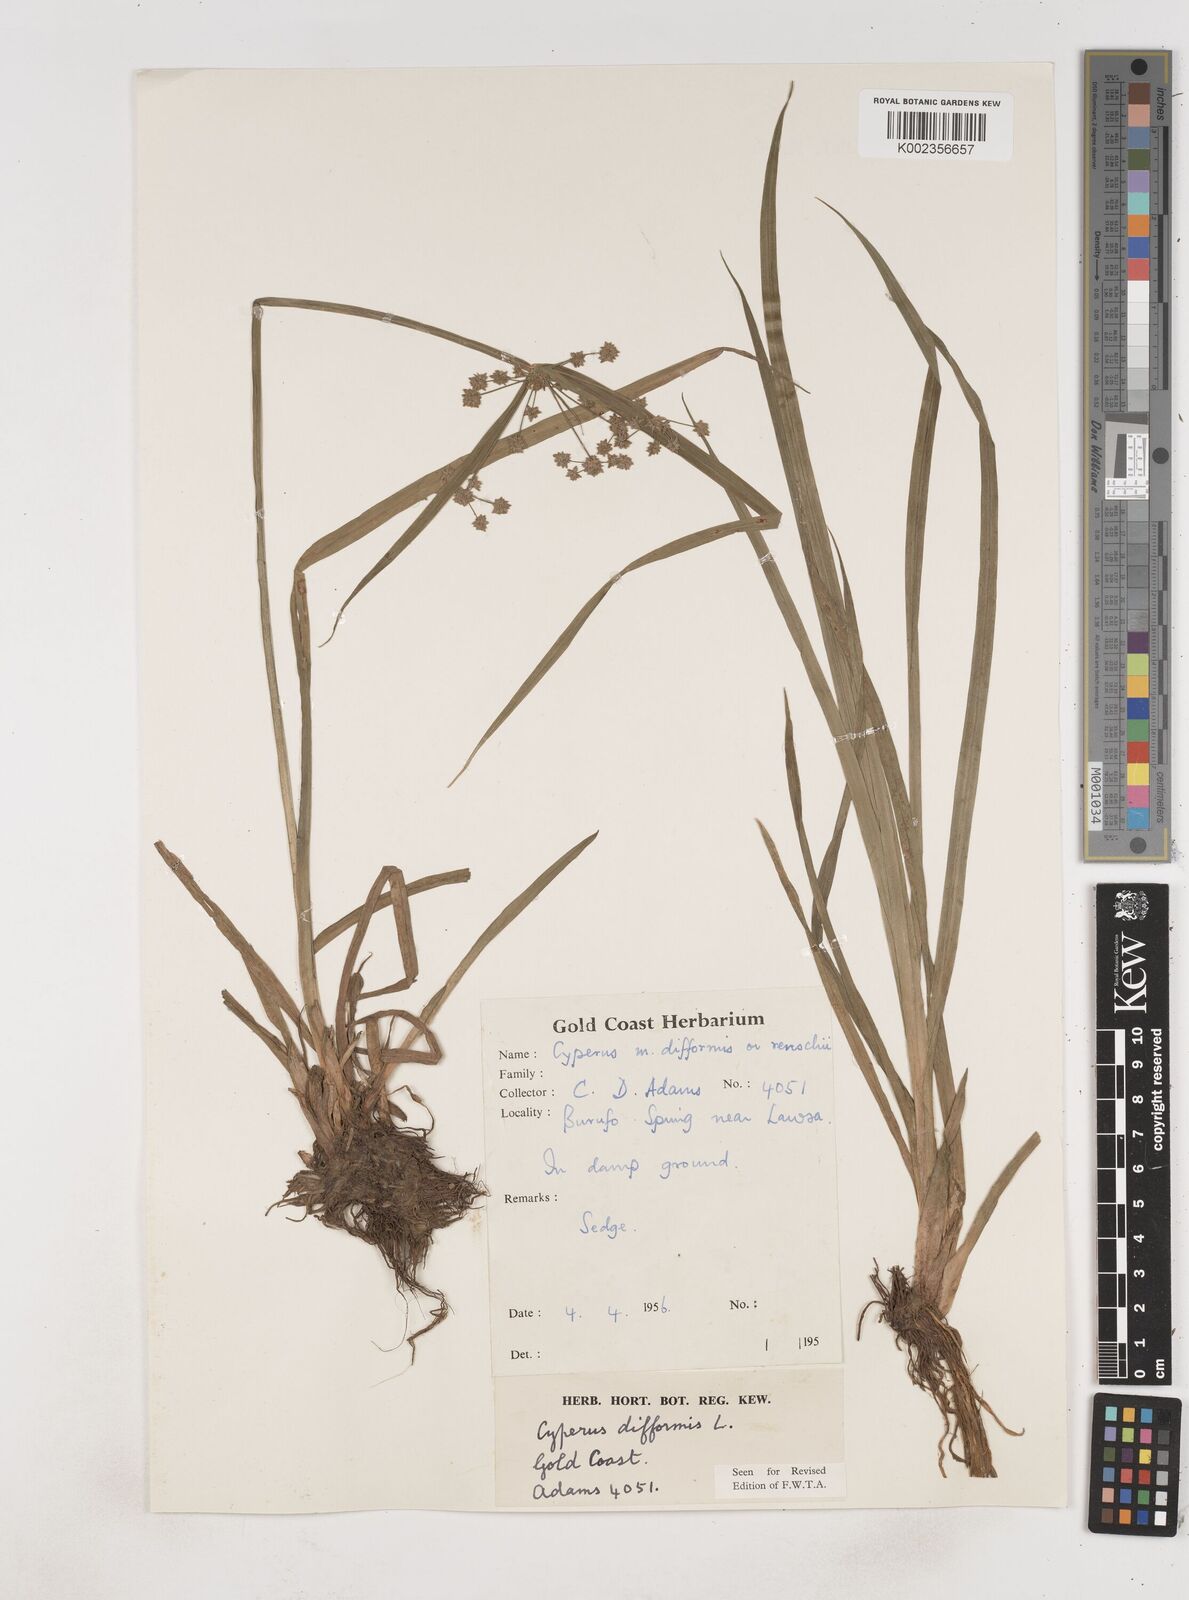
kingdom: Plantae
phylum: Tracheophyta
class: Liliopsida
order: Poales
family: Cyperaceae
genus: Cyperus
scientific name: Cyperus difformis
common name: Variable flatsedge
